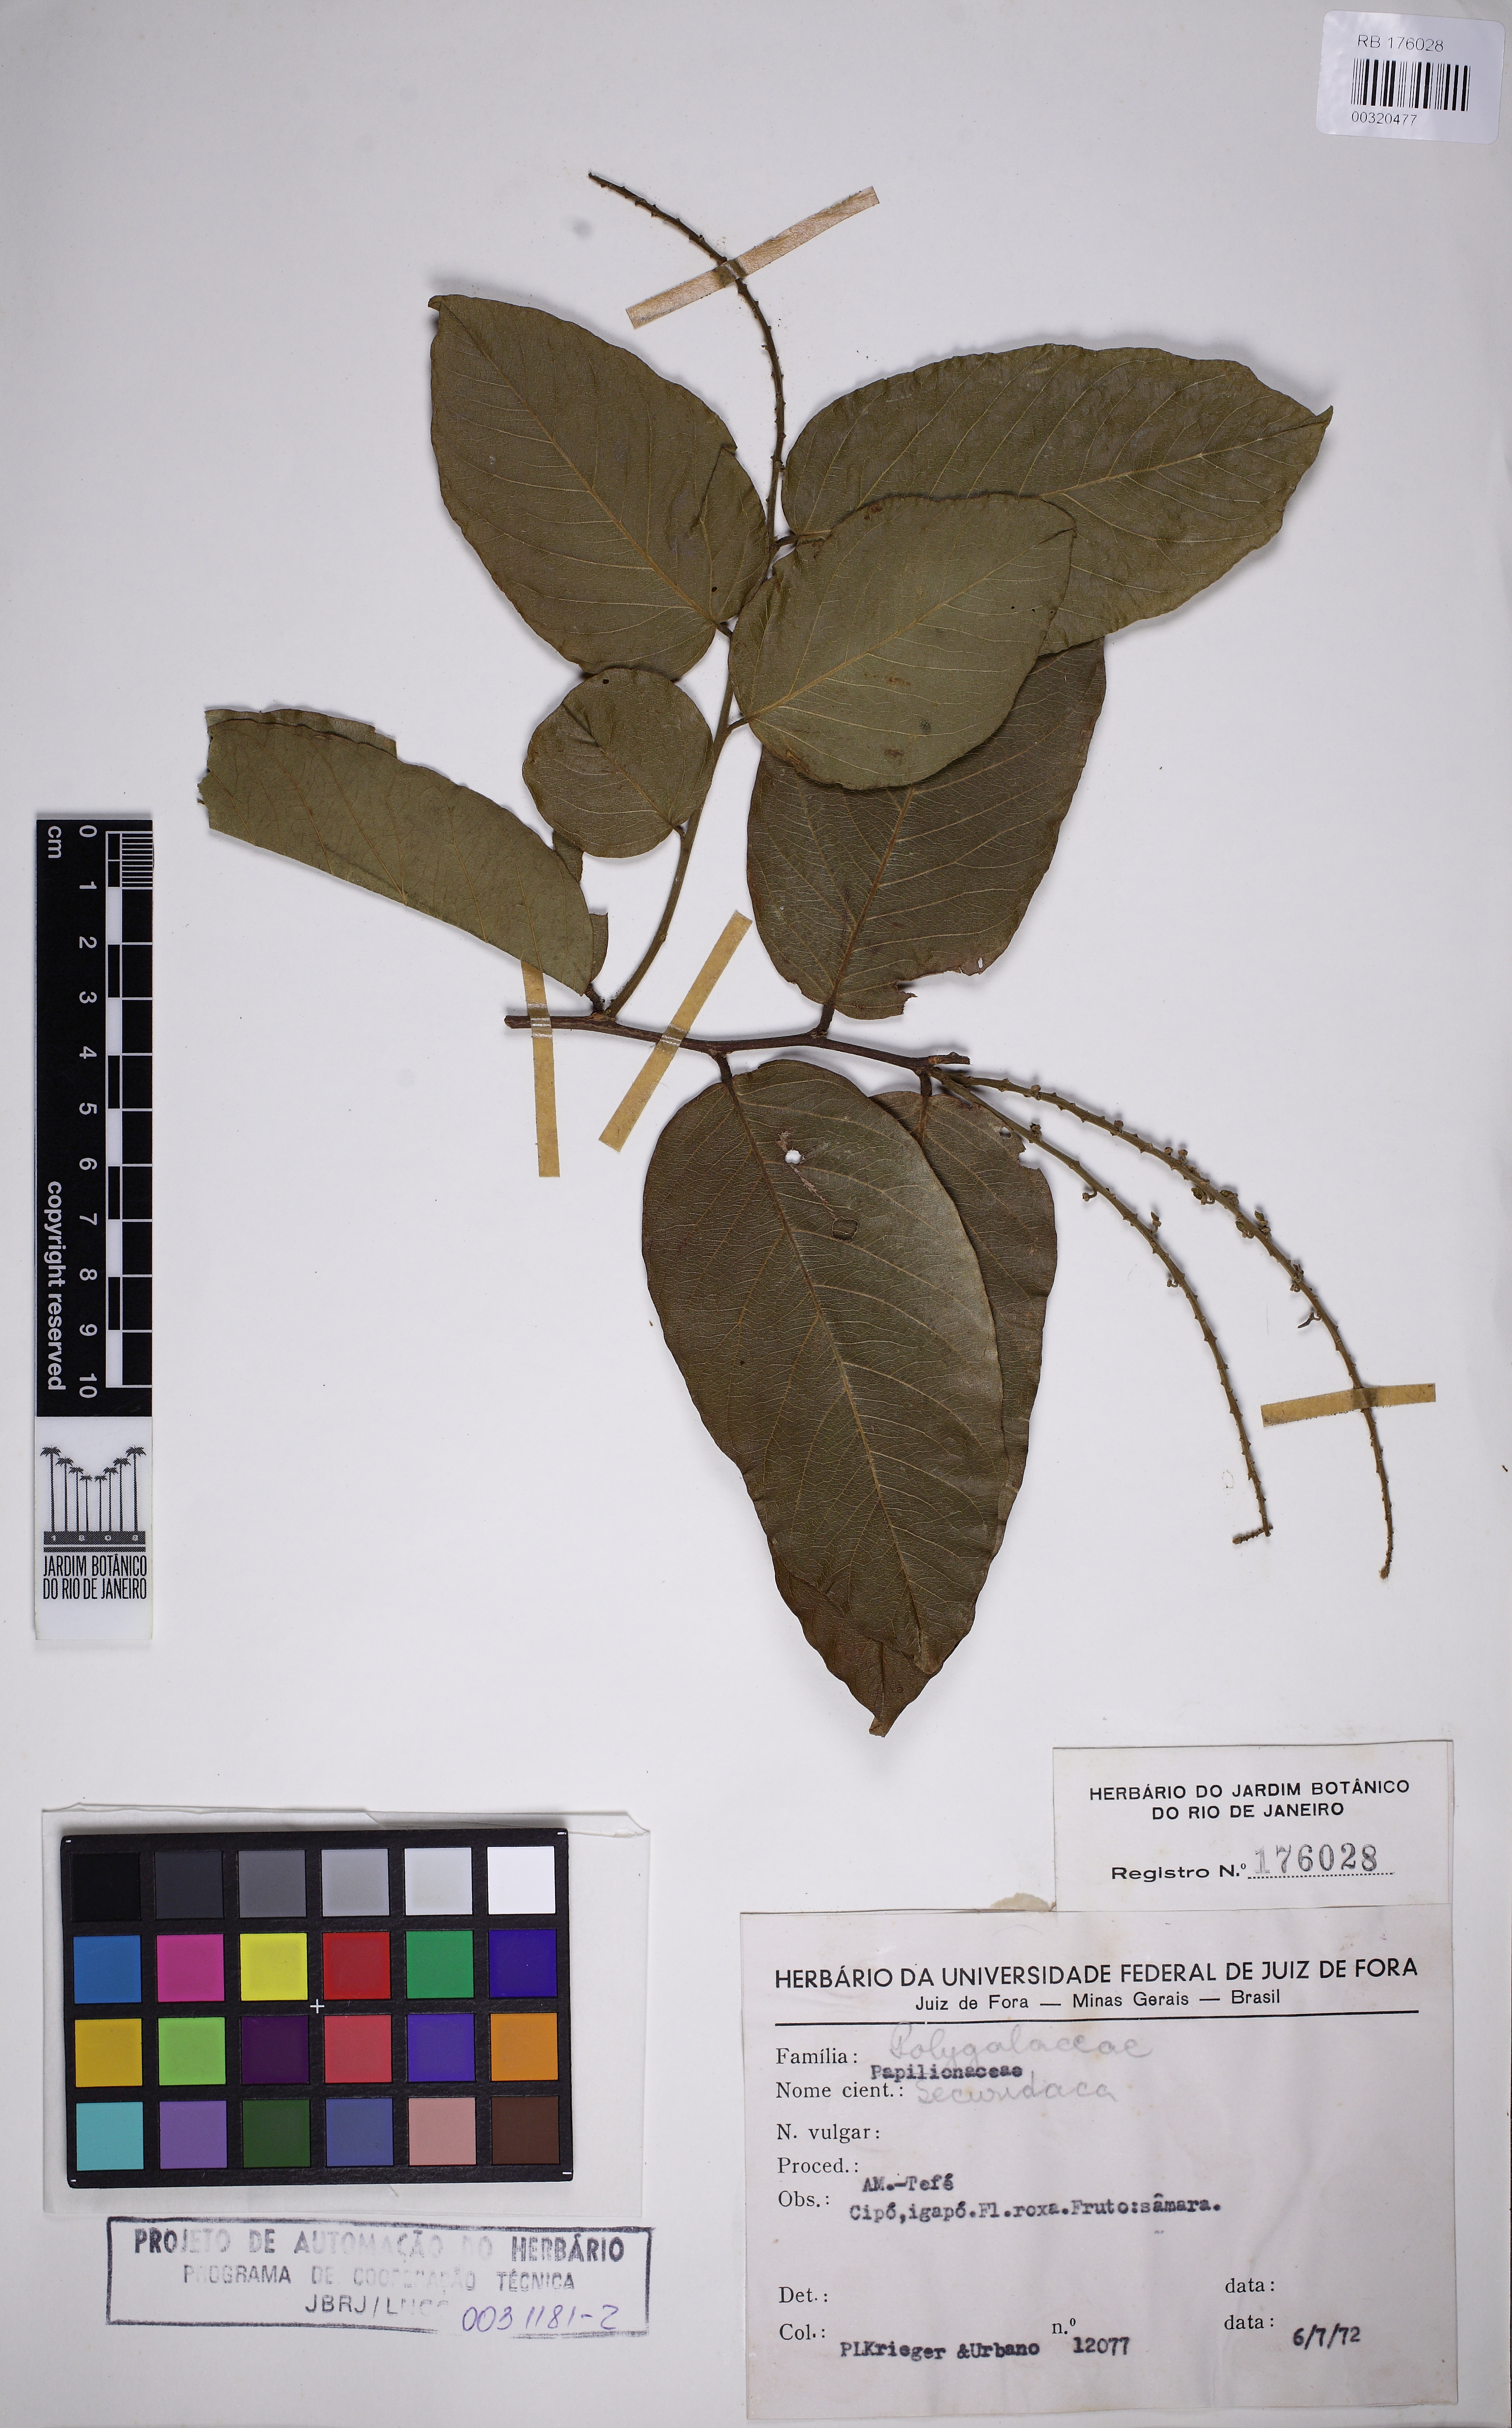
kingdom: Plantae
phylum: Tracheophyta
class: Magnoliopsida
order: Fabales
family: Polygalaceae
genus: Securidaca
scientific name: Securidaca
